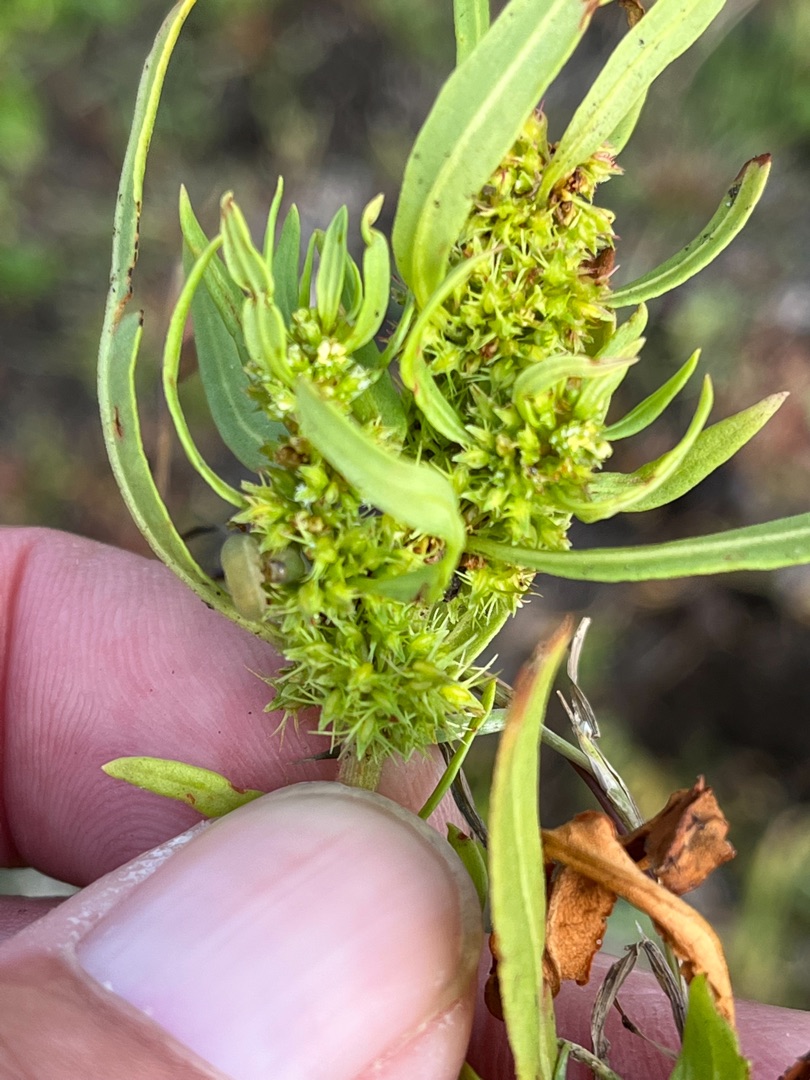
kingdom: Plantae
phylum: Tracheophyta
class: Magnoliopsida
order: Caryophyllales
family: Polygonaceae
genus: Rumex
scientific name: Rumex maritimus
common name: Strand-skræppe
